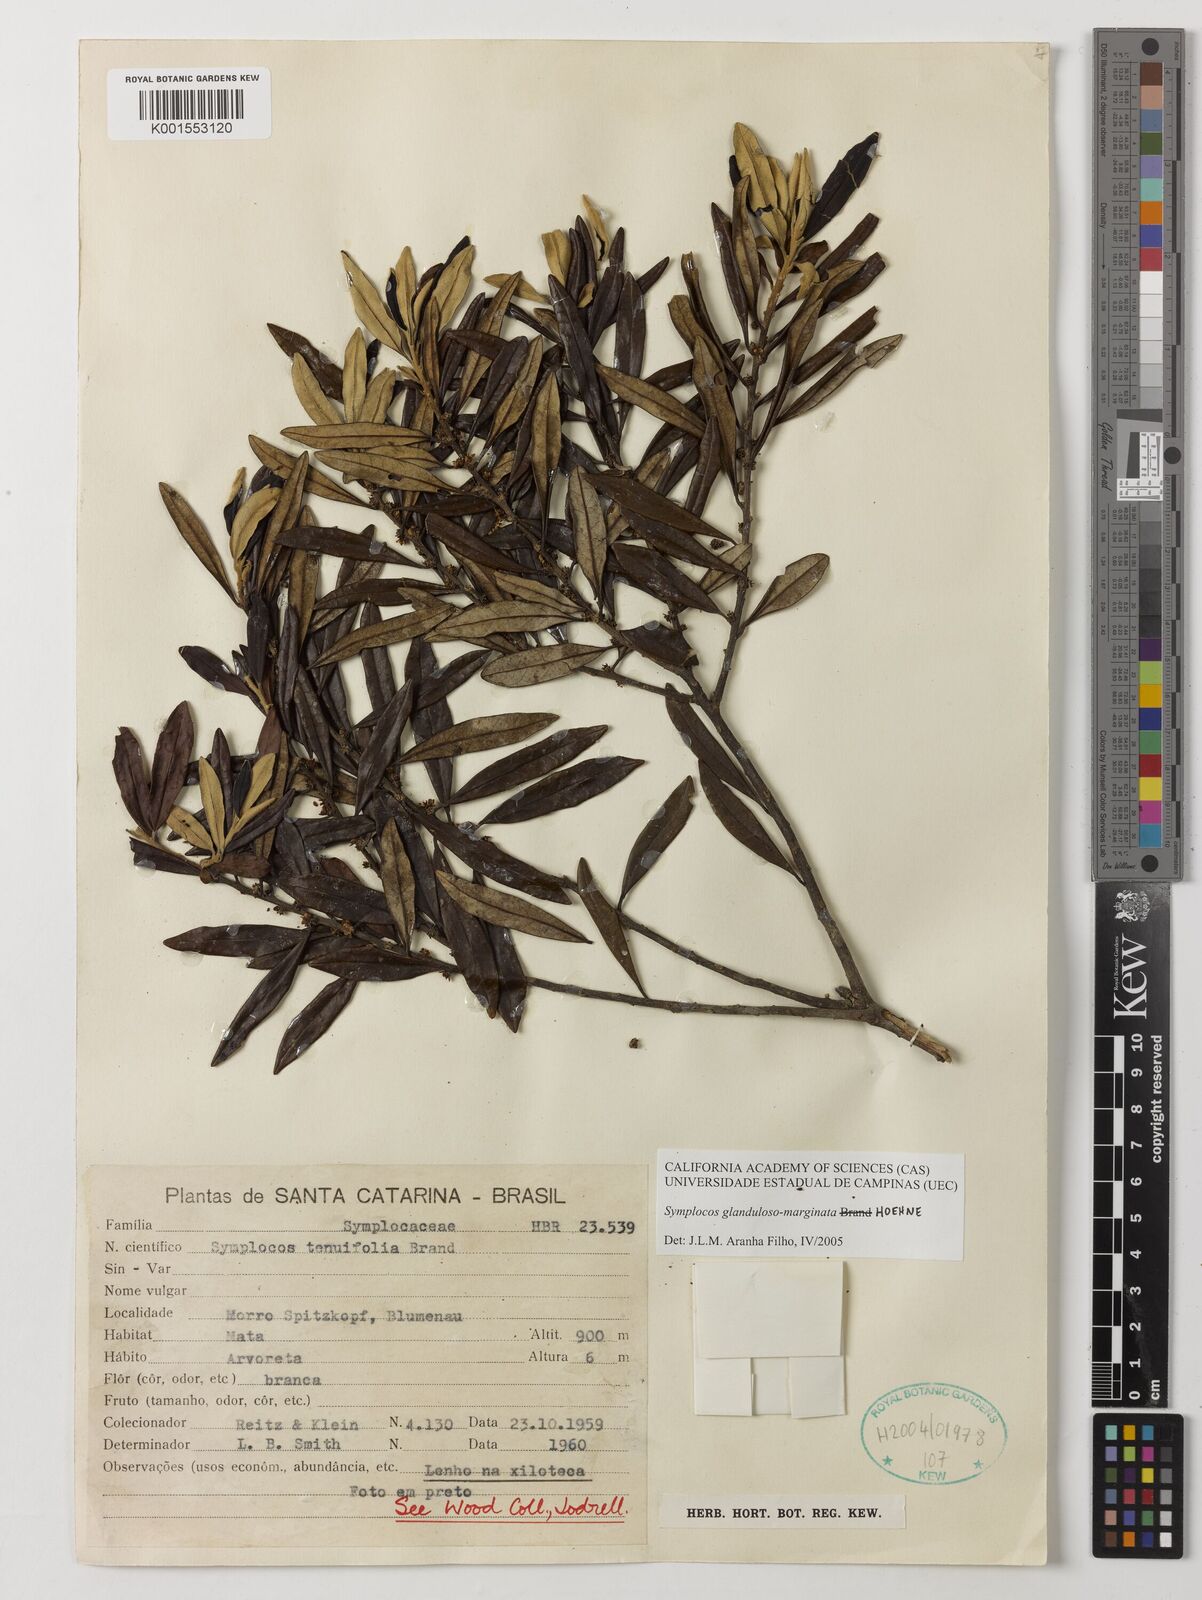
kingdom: Plantae
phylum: Tracheophyta
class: Magnoliopsida
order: Ericales
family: Symplocaceae
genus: Symplocos
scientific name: Symplocos glandulosomarginata
